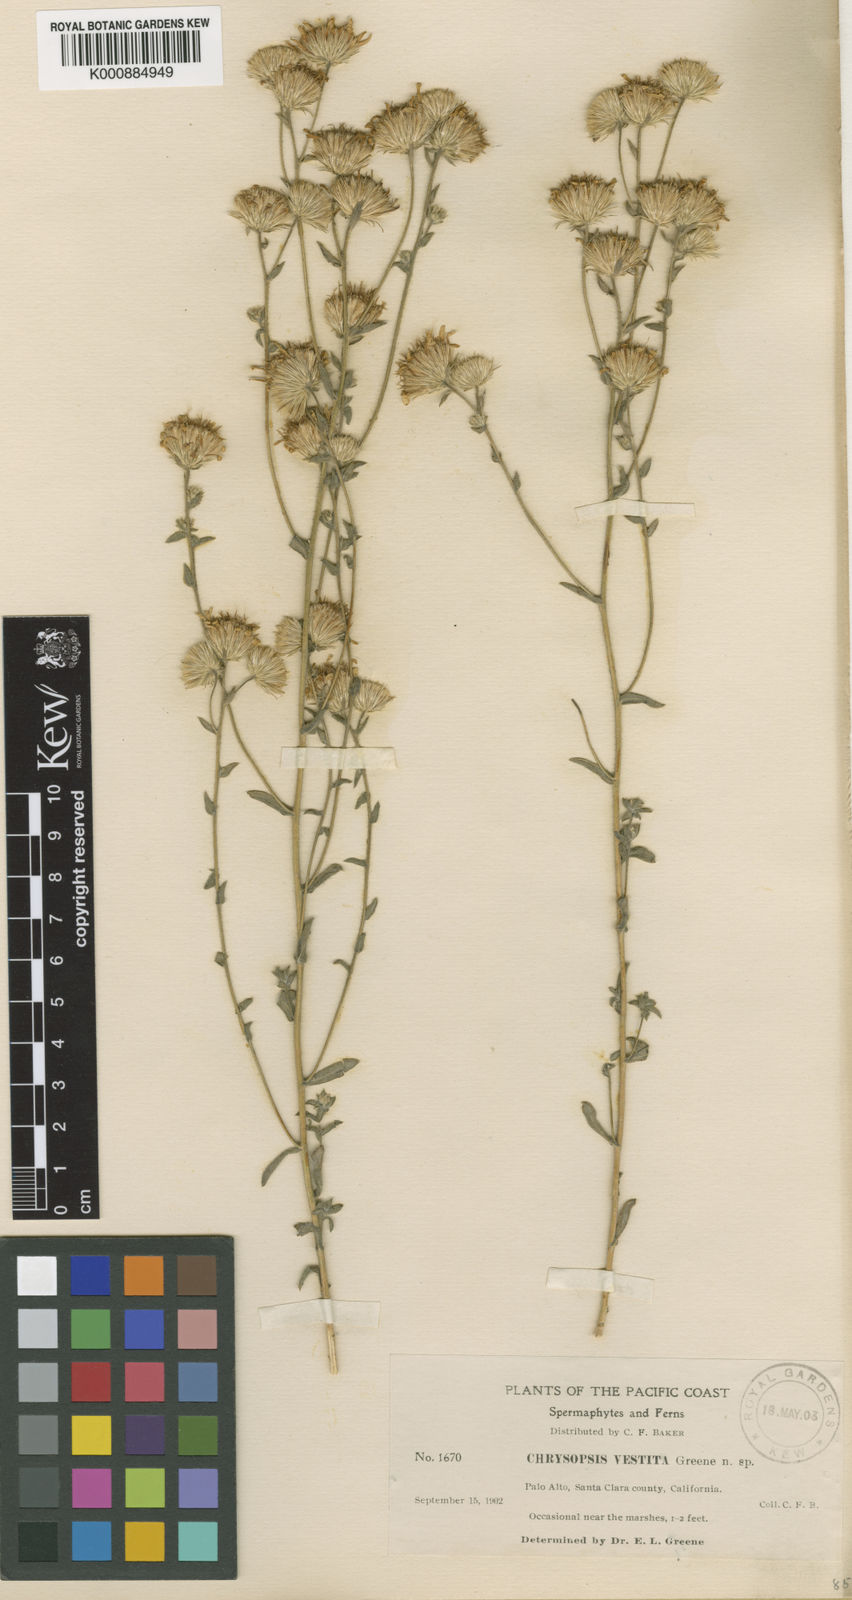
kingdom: Plantae
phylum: Tracheophyta
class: Magnoliopsida
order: Asterales
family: Asteraceae
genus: Heterotheca
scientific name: Heterotheca
